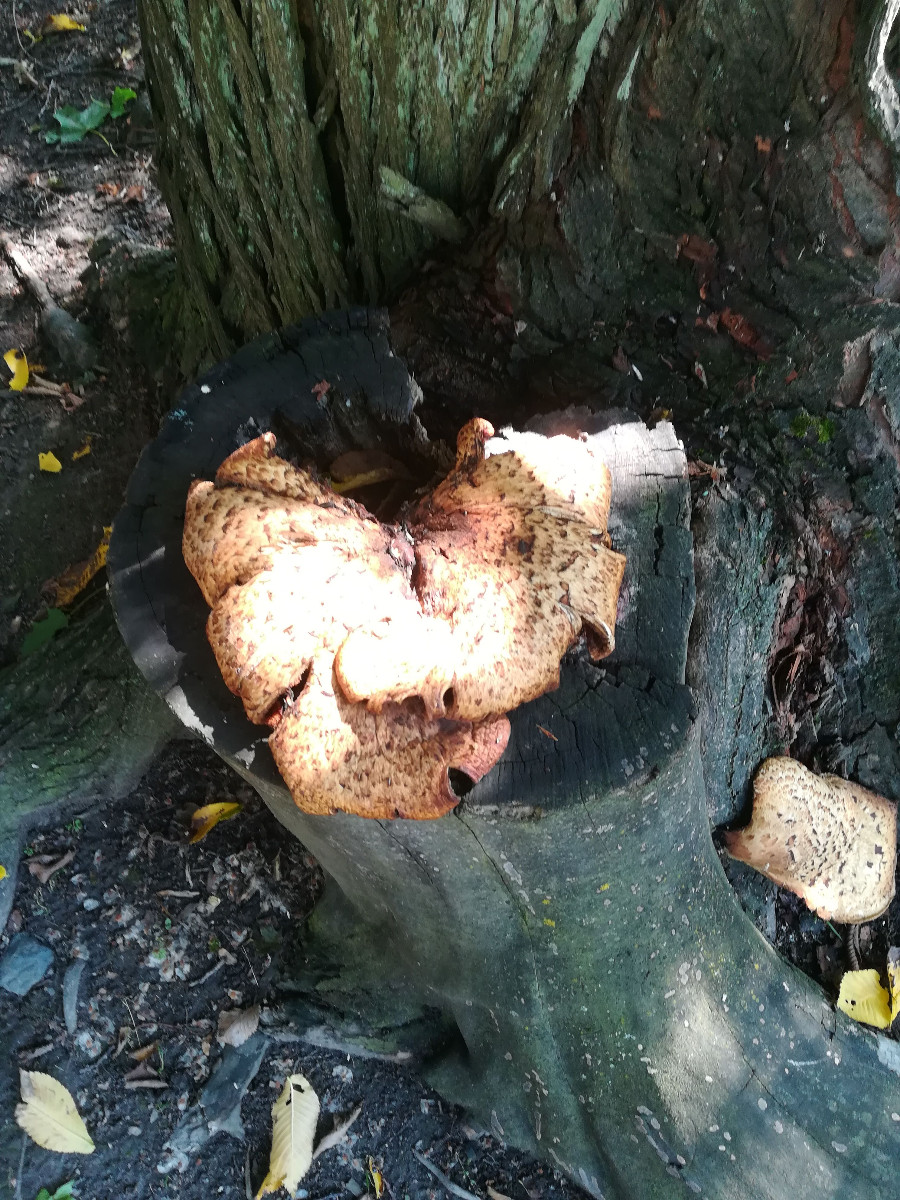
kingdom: Fungi
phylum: Basidiomycota
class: Agaricomycetes
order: Polyporales
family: Polyporaceae
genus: Cerioporus
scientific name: Cerioporus squamosus
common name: skællet stilkporesvamp
